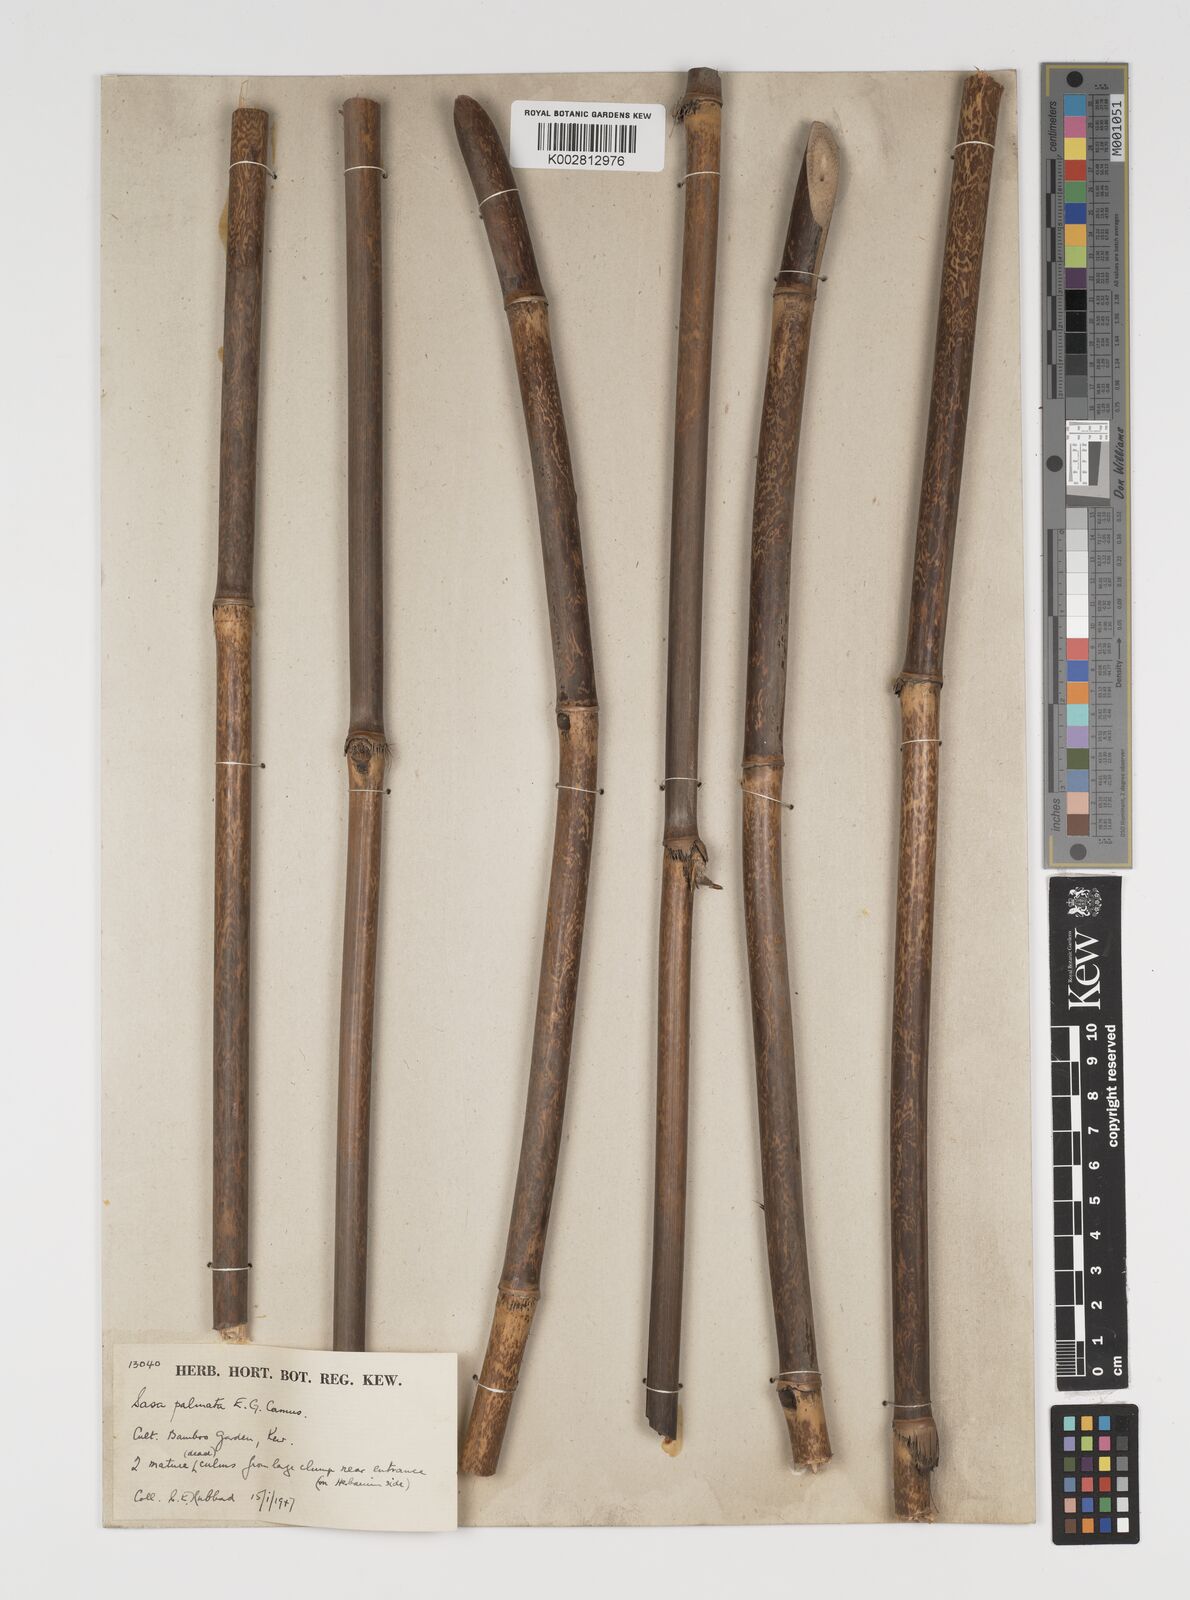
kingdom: Plantae
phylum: Tracheophyta
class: Liliopsida
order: Poales
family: Poaceae
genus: Sasa
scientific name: Sasa palmata
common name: Broad-leaved bamboo
